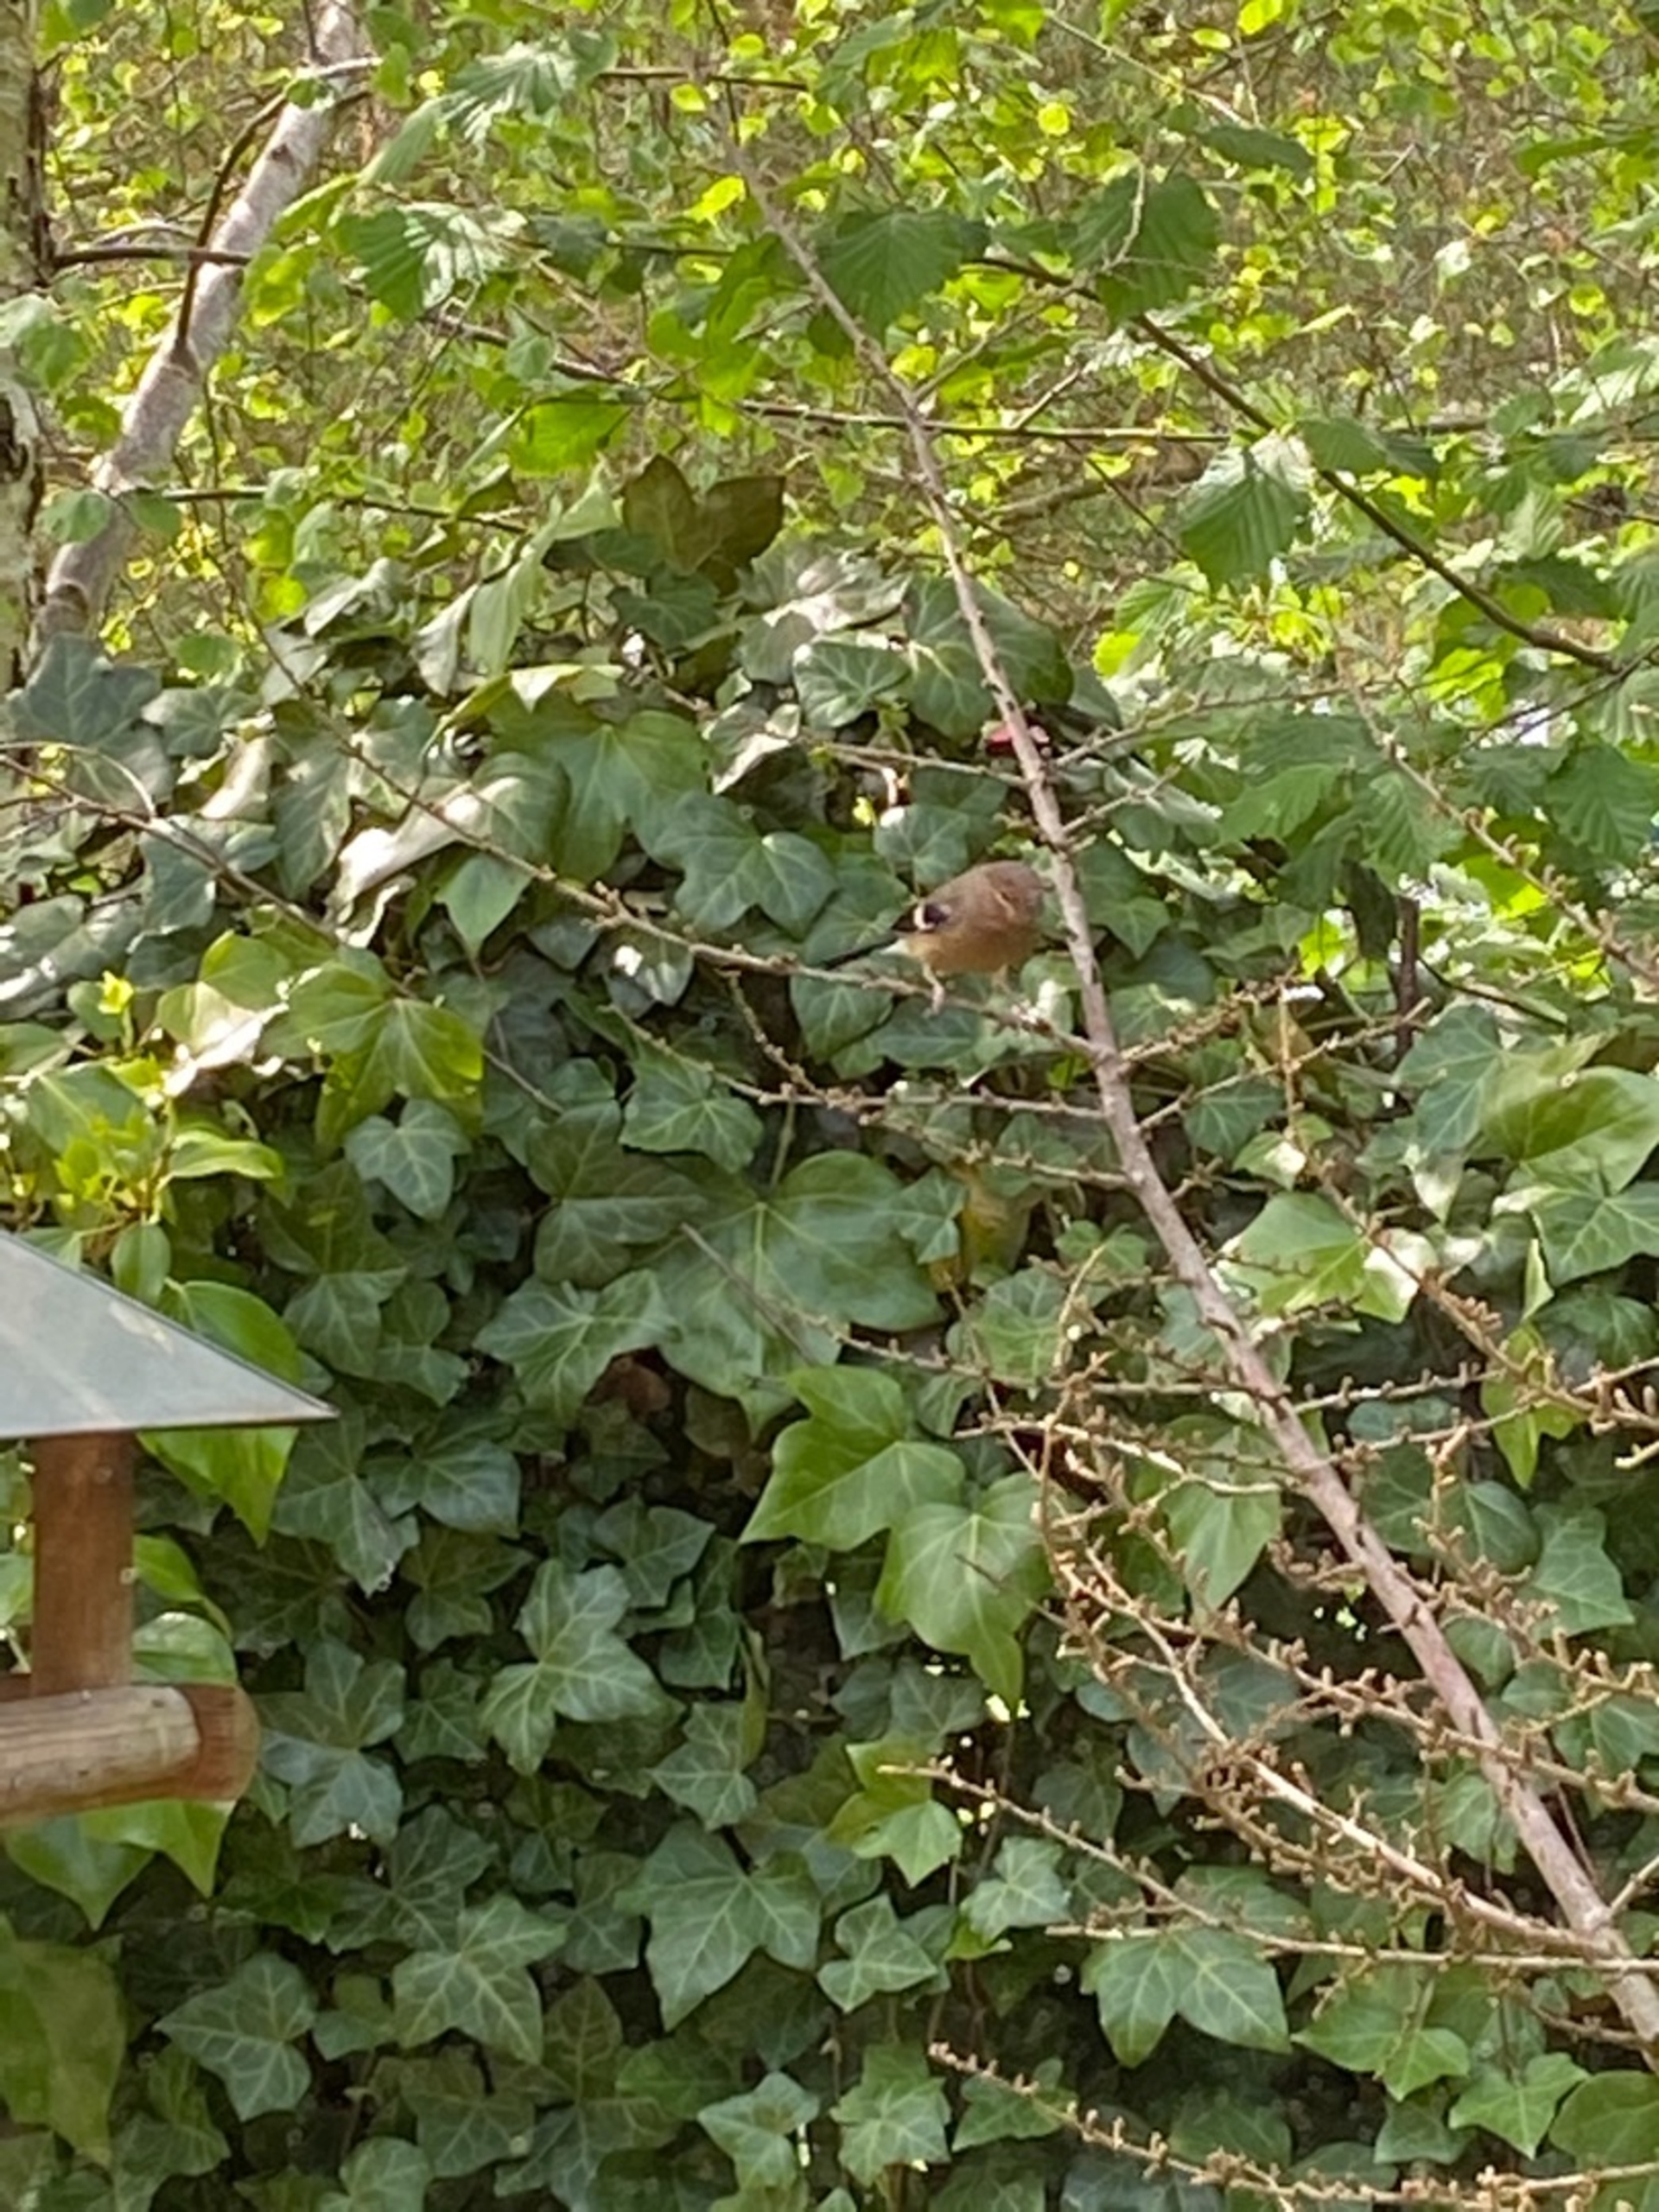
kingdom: Animalia
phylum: Chordata
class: Aves
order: Passeriformes
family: Fringillidae
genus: Fringilla
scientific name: Fringilla coelebs
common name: Bogfinke
